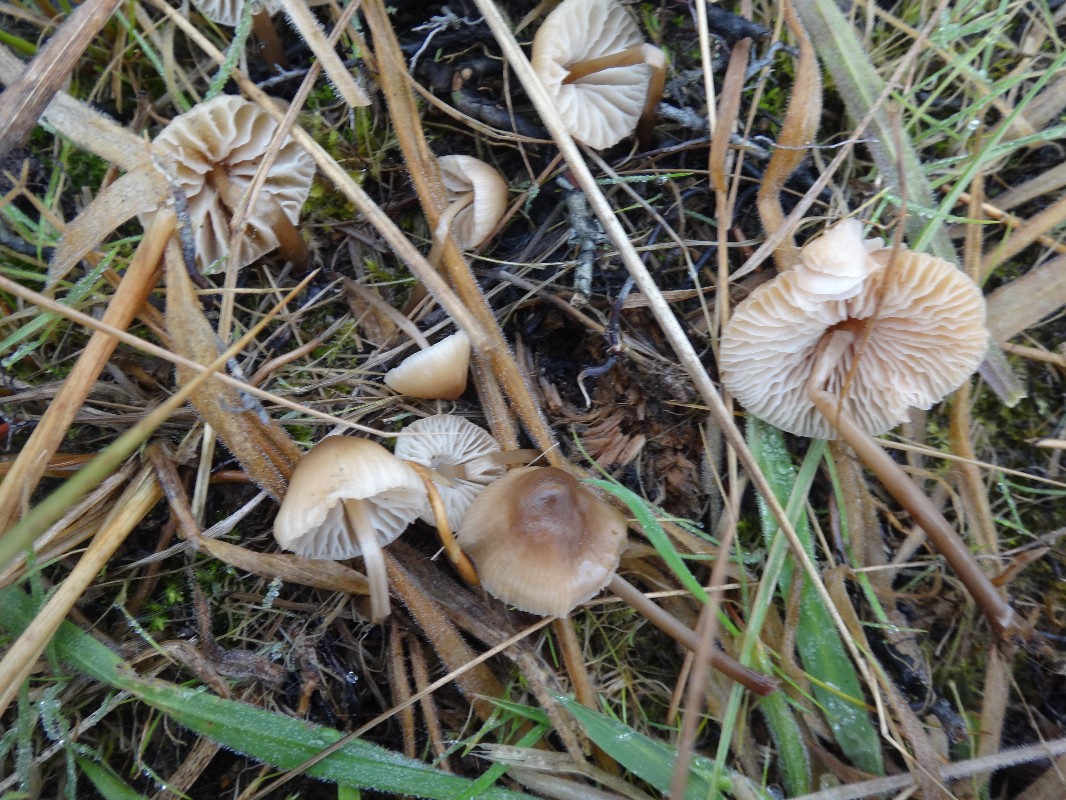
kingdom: Fungi
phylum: Basidiomycota
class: Agaricomycetes
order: Agaricales
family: Mycenaceae
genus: Mycena
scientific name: Mycena galericulata
